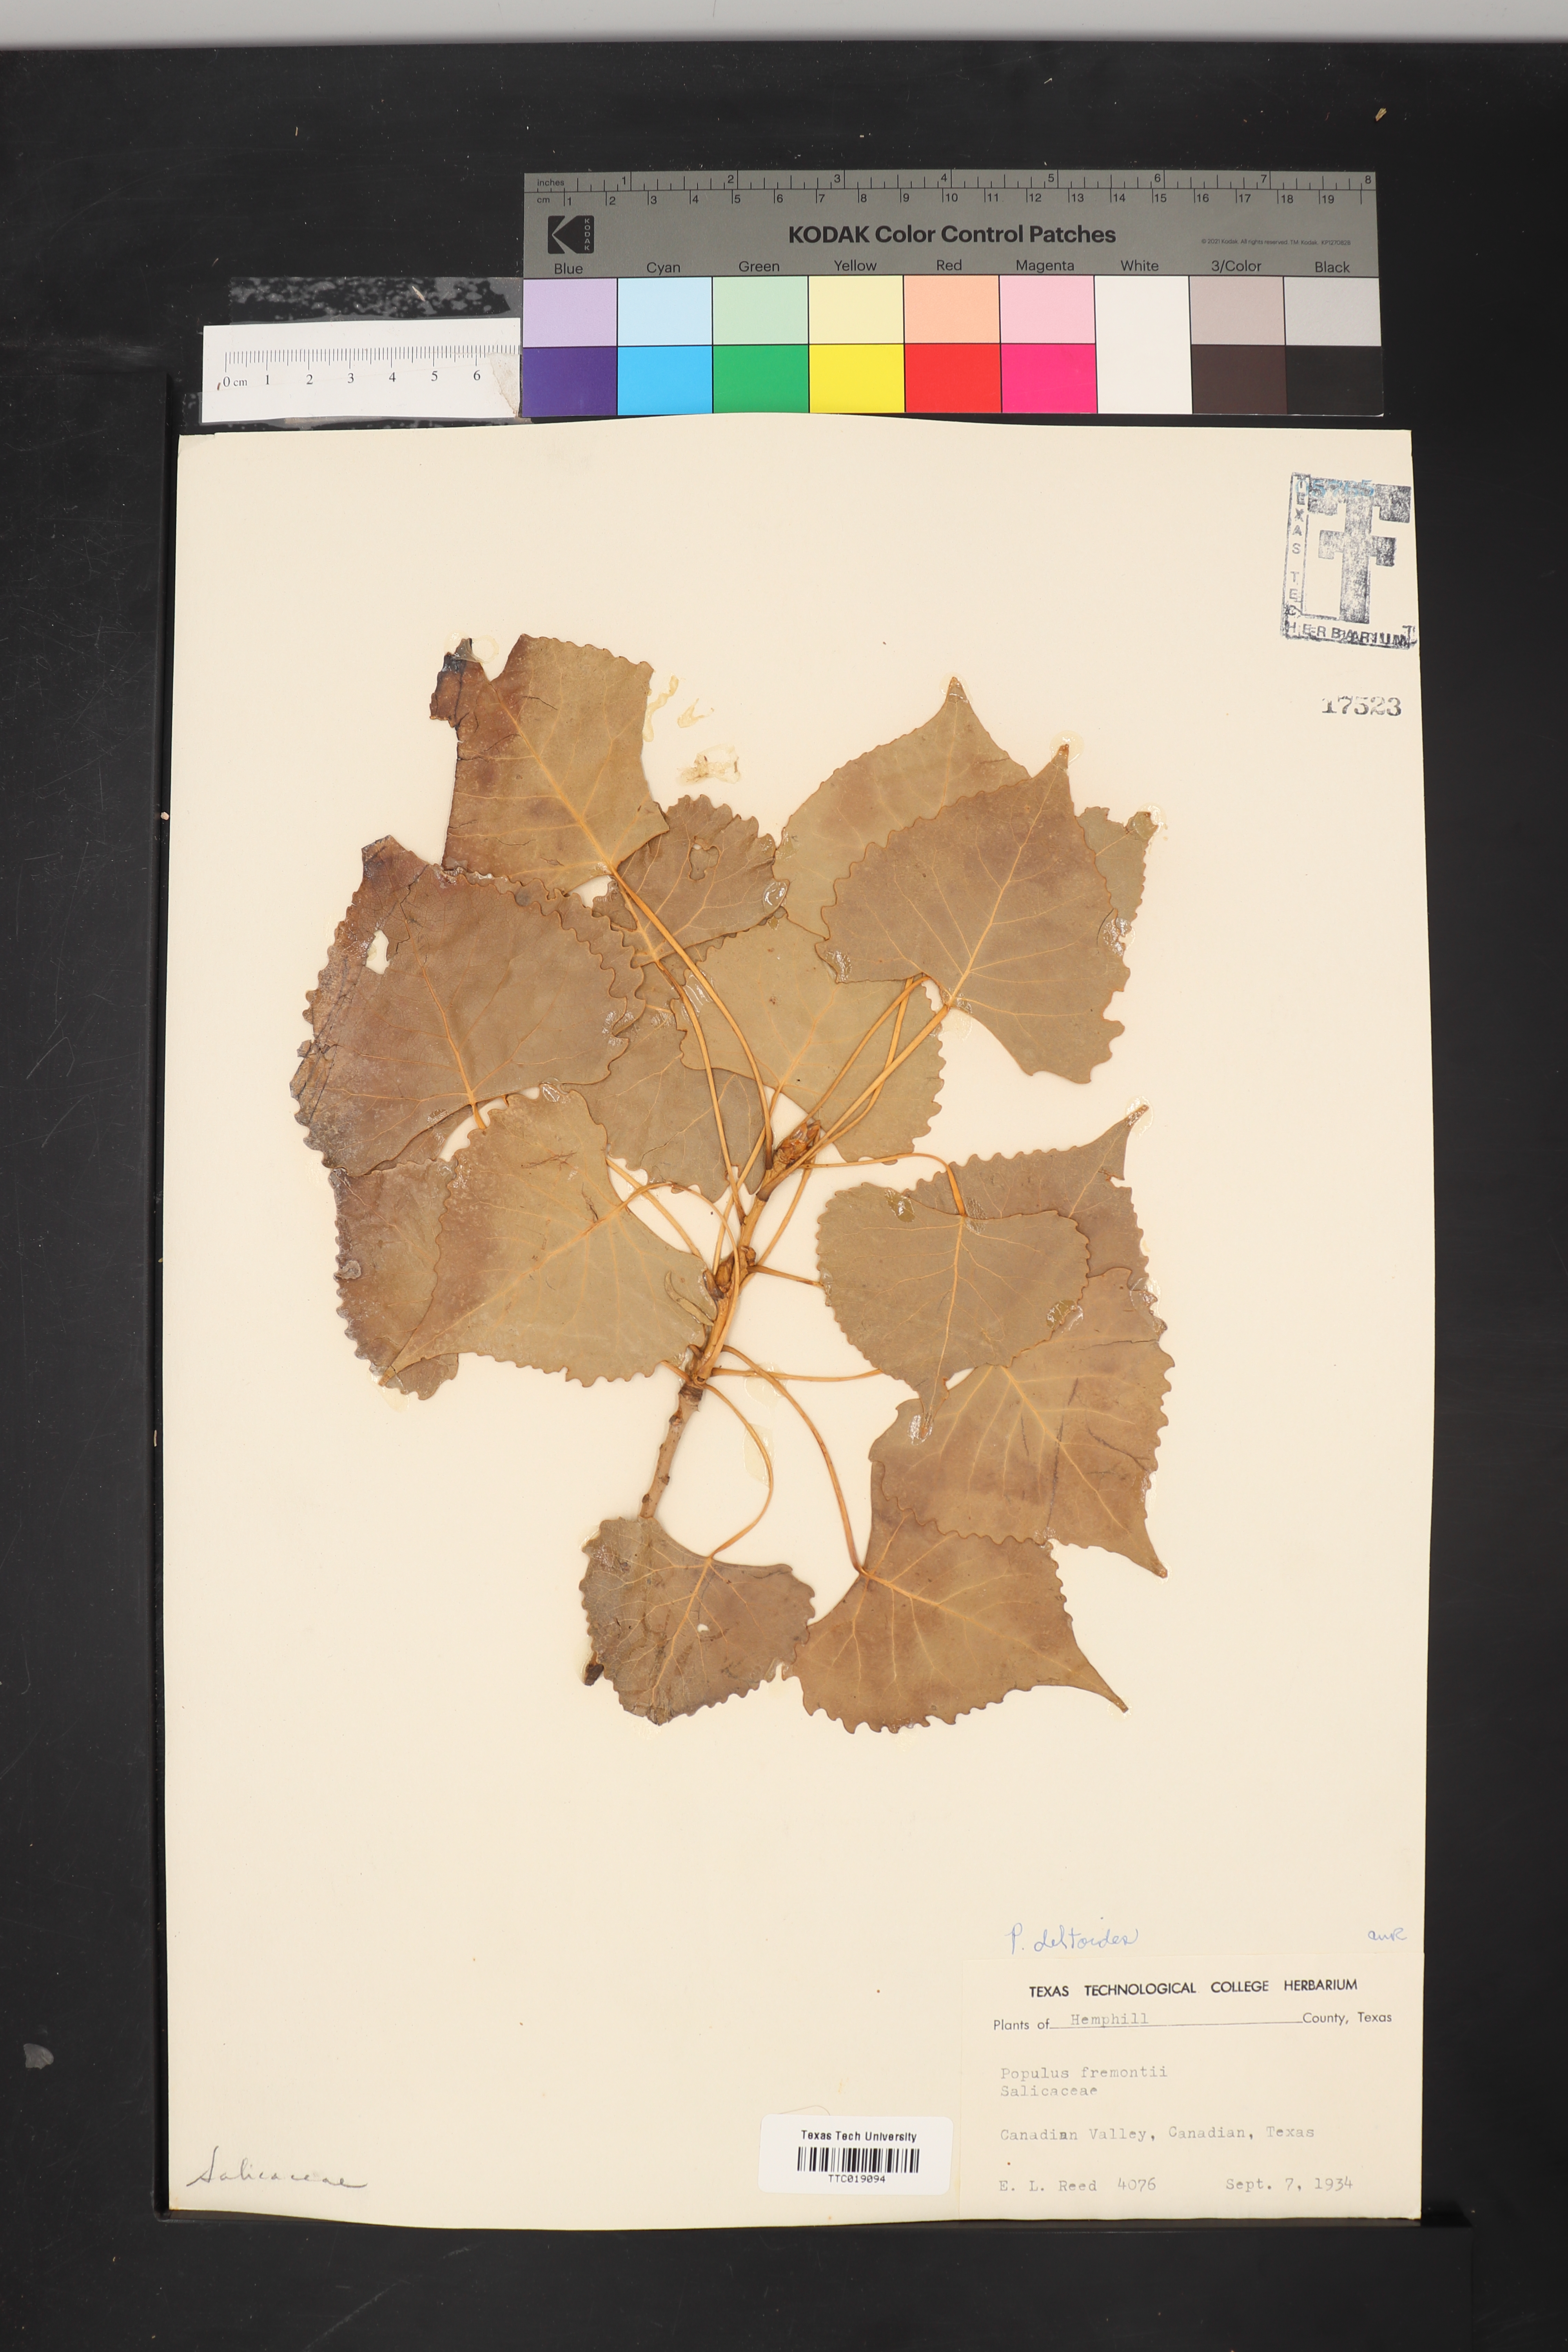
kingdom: Plantae
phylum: Tracheophyta
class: Magnoliopsida
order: Malpighiales
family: Salicaceae
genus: Populus
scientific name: Populus deltoides
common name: Eastern cottonwood
